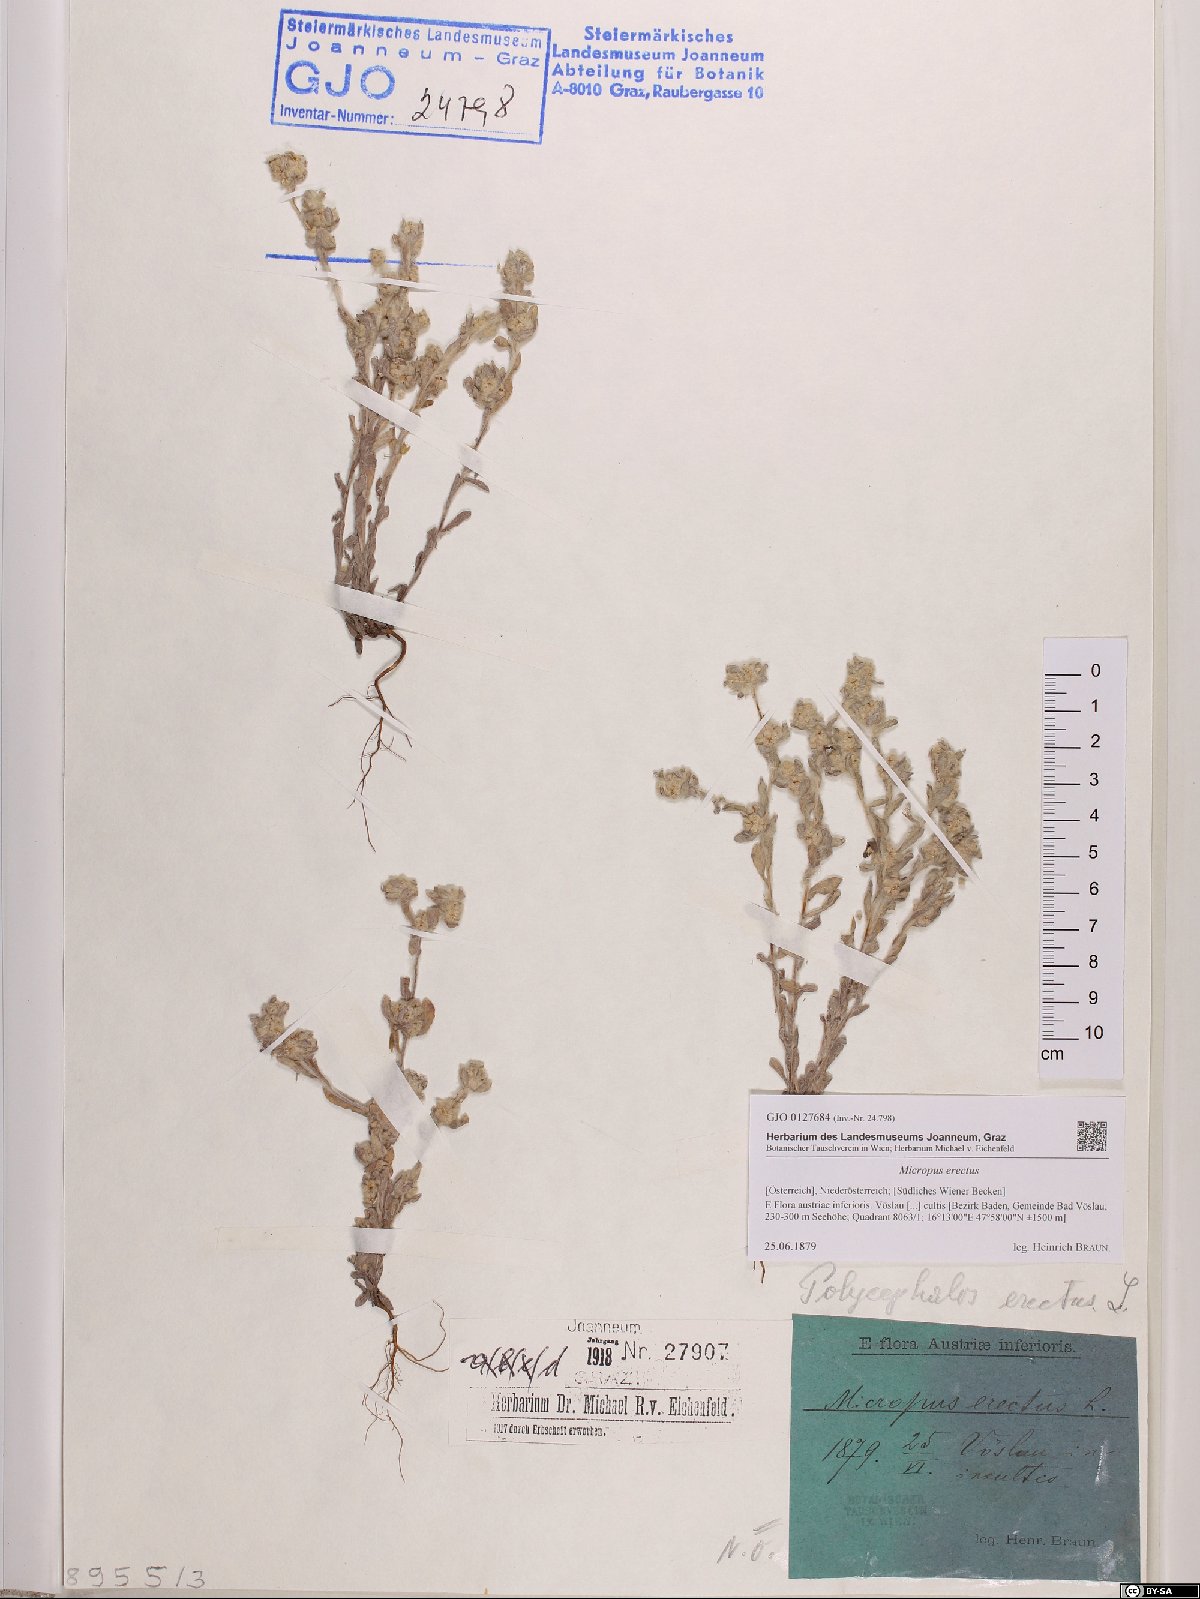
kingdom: Plantae
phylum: Tracheophyta
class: Magnoliopsida
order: Asterales
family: Asteraceae
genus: Bombycilaena
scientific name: Bombycilaena erecta
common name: Micropus
